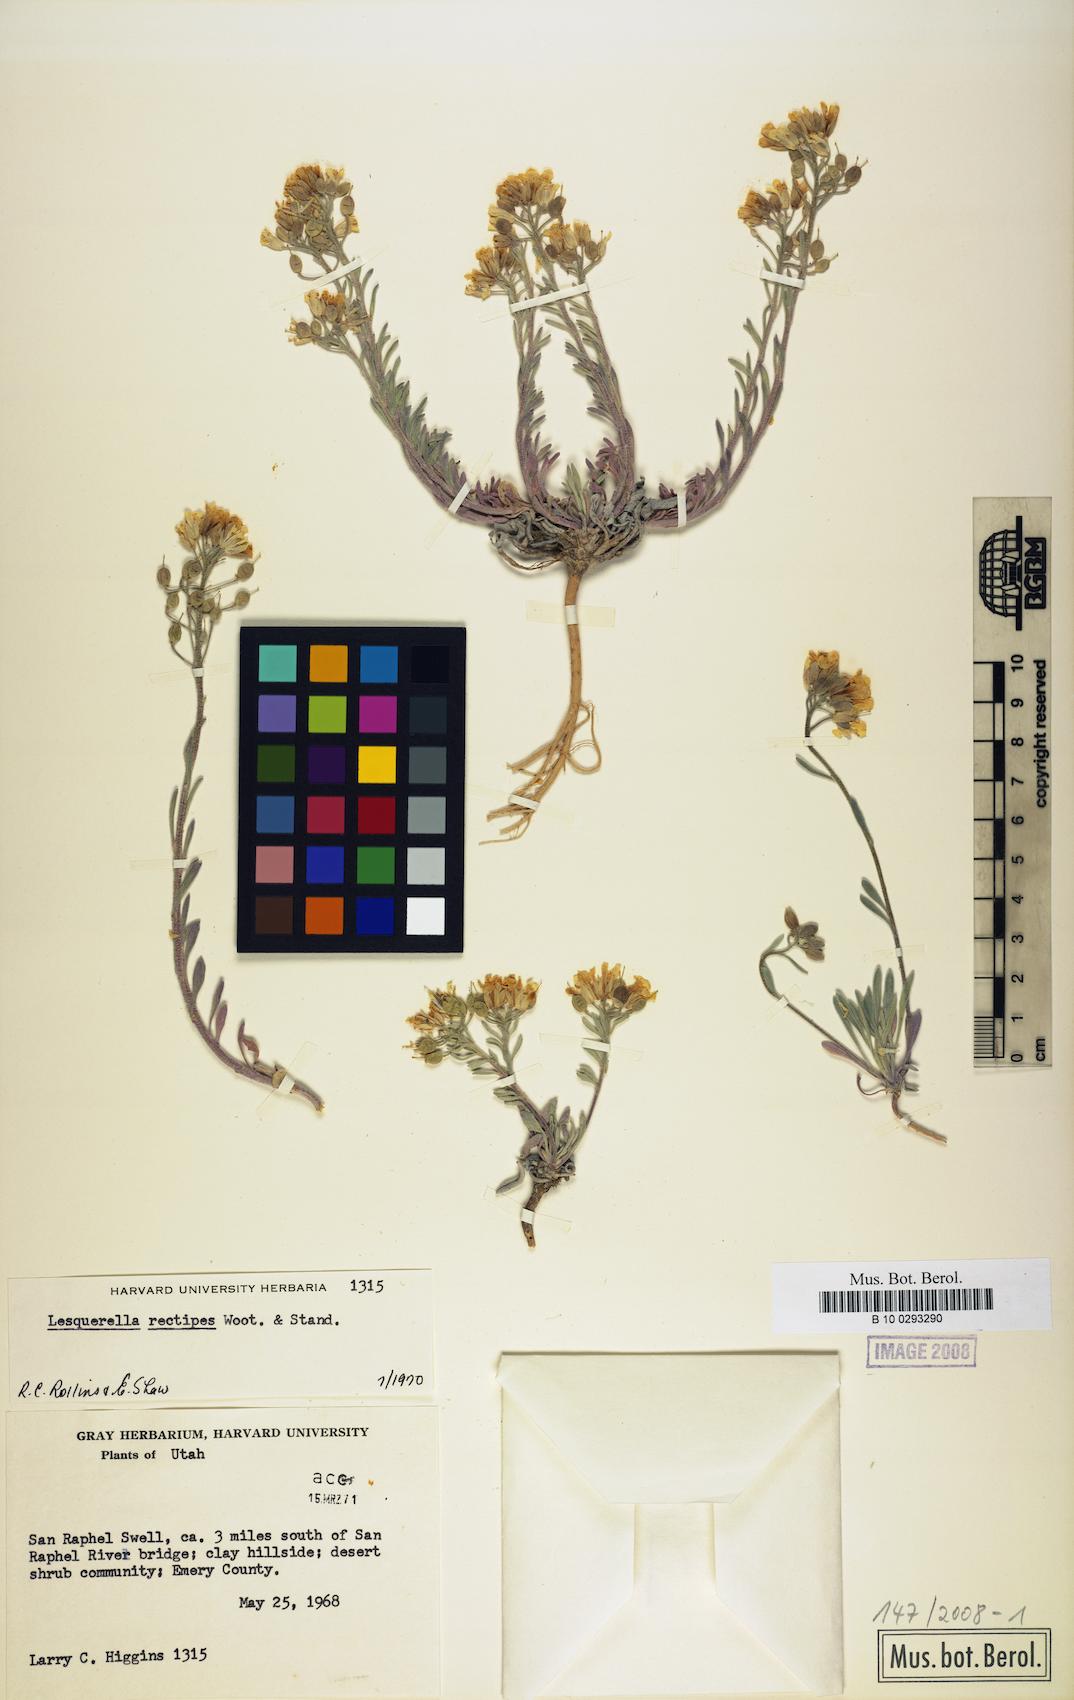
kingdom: Plantae
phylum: Tracheophyta
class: Magnoliopsida
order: Brassicales
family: Brassicaceae
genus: Physaria
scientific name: Physaria rectipes
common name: Colorado bladderpod
